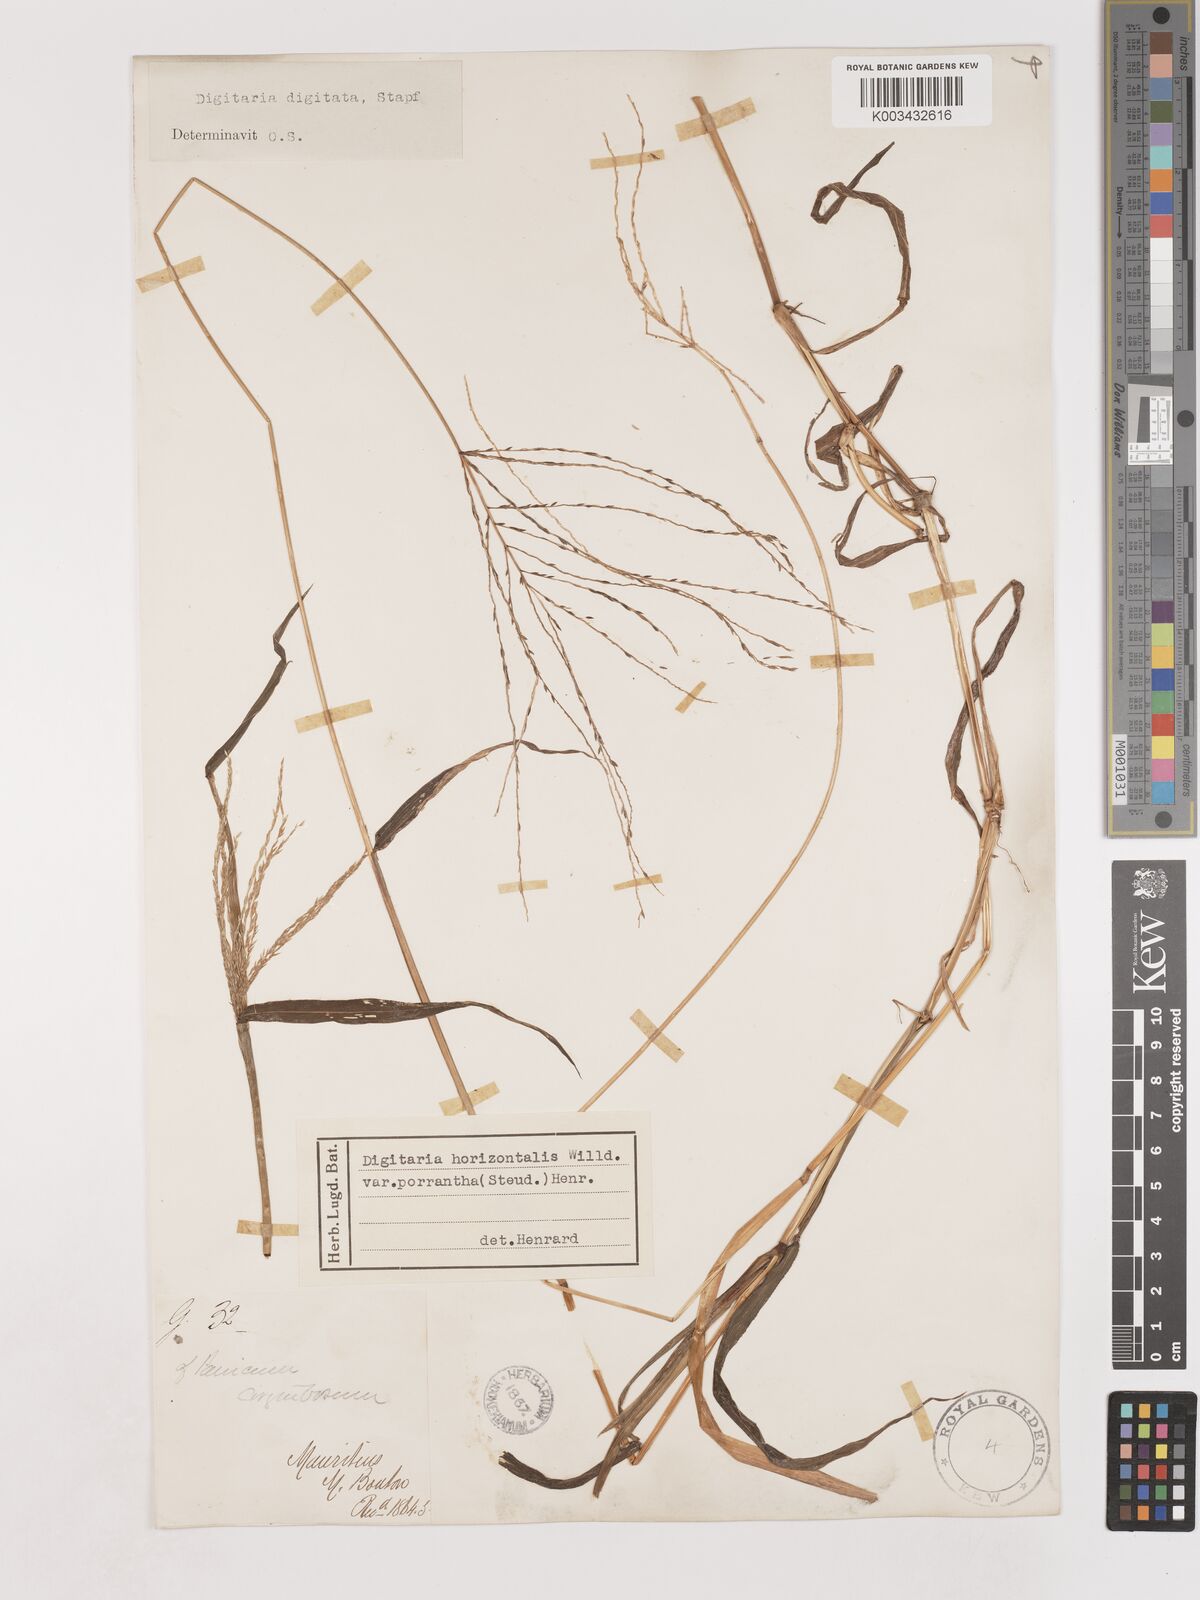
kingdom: Plantae
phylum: Tracheophyta
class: Liliopsida
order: Poales
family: Poaceae
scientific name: Poaceae
